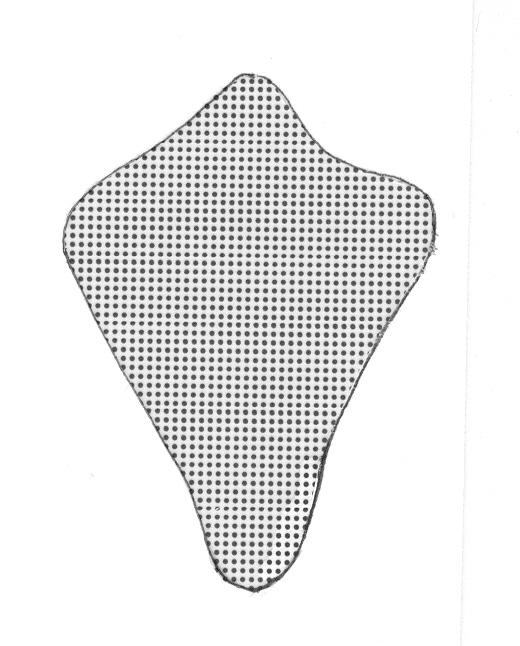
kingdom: Animalia
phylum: Chordata
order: Perciformes
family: Serranidae
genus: Odontanthias
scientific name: Odontanthias katayamai
